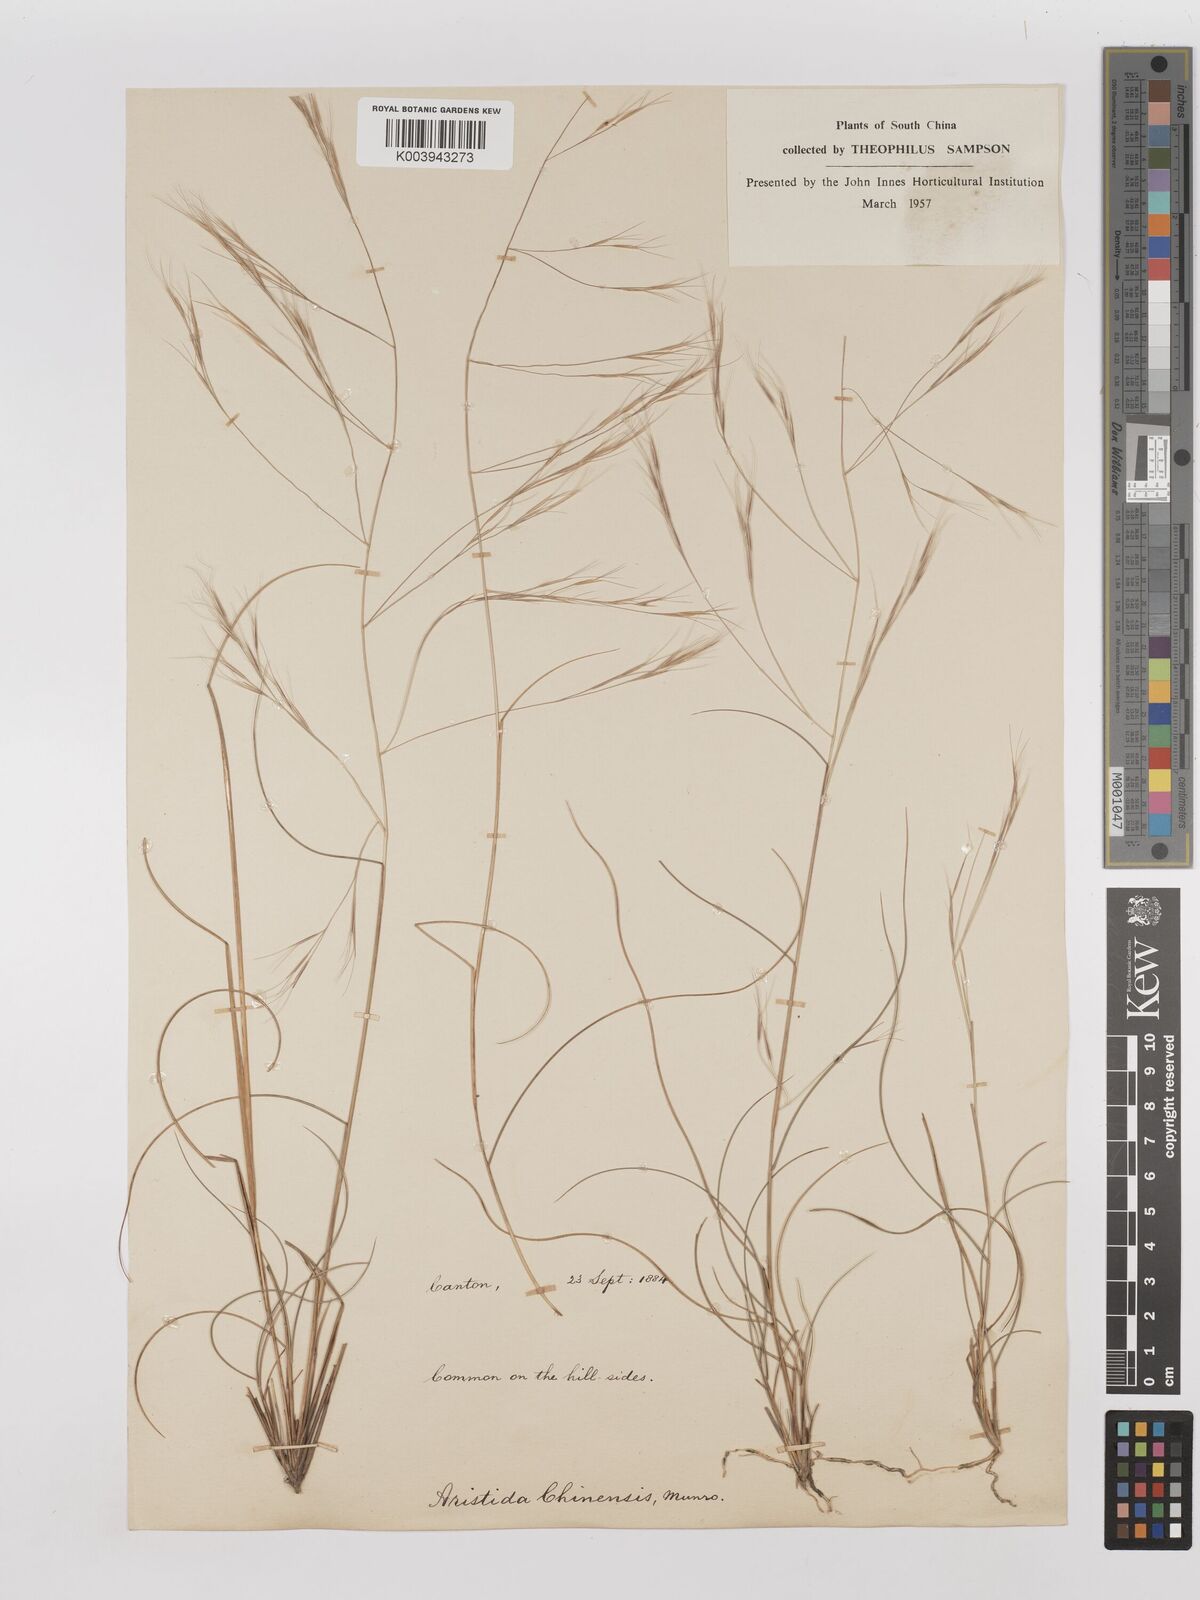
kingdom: Plantae
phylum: Tracheophyta
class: Liliopsida
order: Poales
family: Poaceae
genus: Aristida
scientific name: Aristida chinensis
